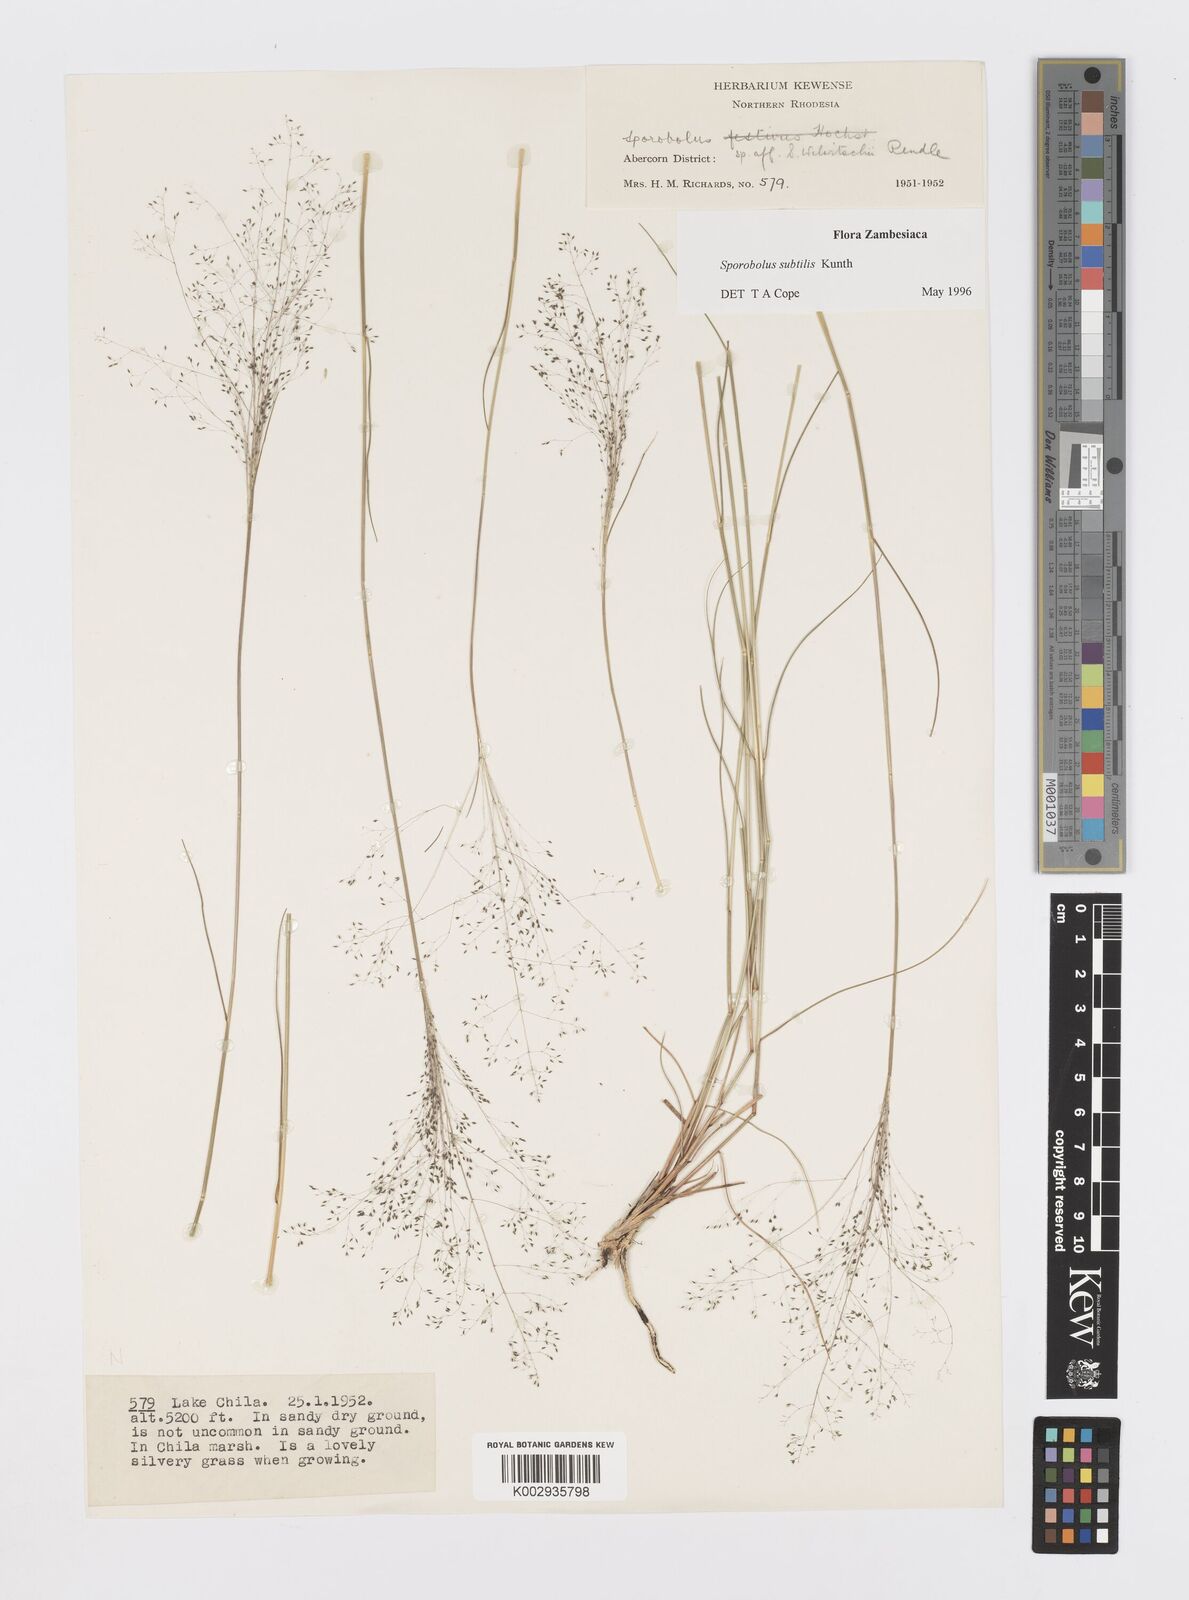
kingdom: Plantae
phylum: Tracheophyta
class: Liliopsida
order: Poales
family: Poaceae
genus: Sporobolus
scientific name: Sporobolus subtilis
